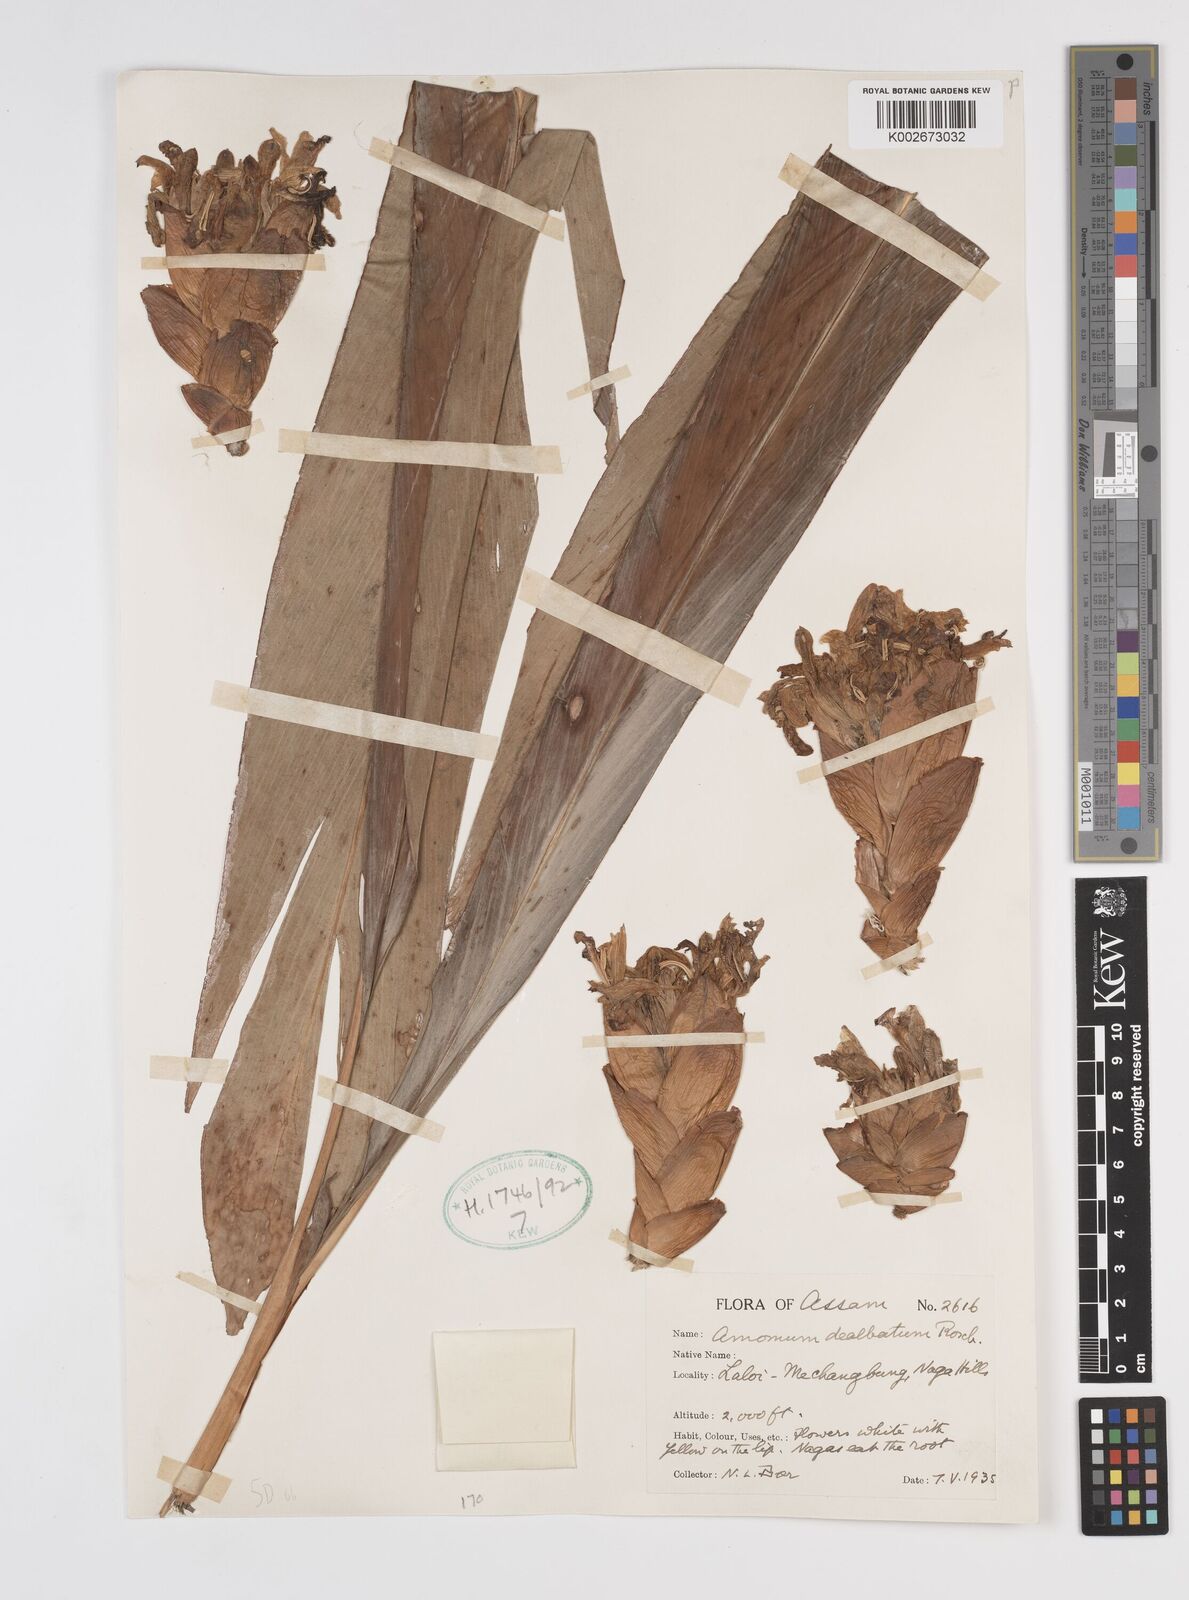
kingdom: Plantae
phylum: Tracheophyta
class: Liliopsida
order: Zingiberales
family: Zingiberaceae
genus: Amomum
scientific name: Amomum dealbatum
